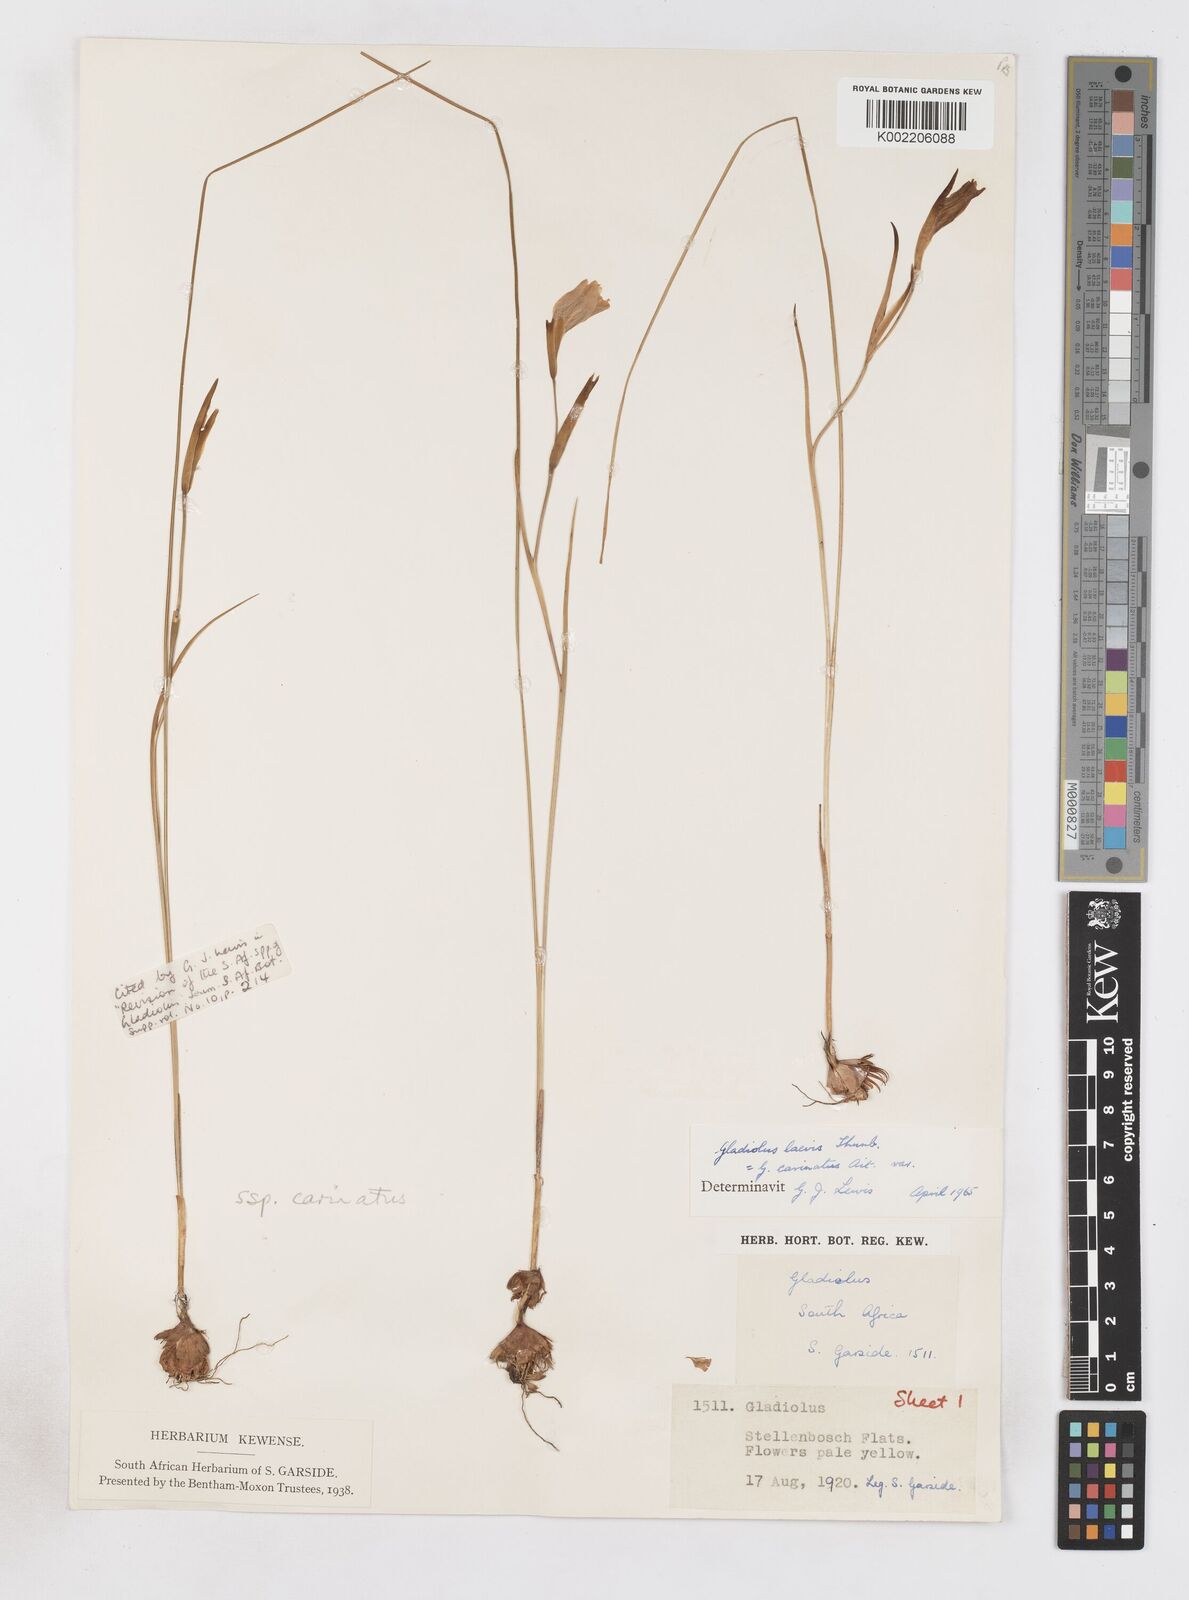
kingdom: Plantae
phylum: Tracheophyta
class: Liliopsida
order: Asparagales
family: Iridaceae
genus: Gladiolus
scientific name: Gladiolus carinatus
